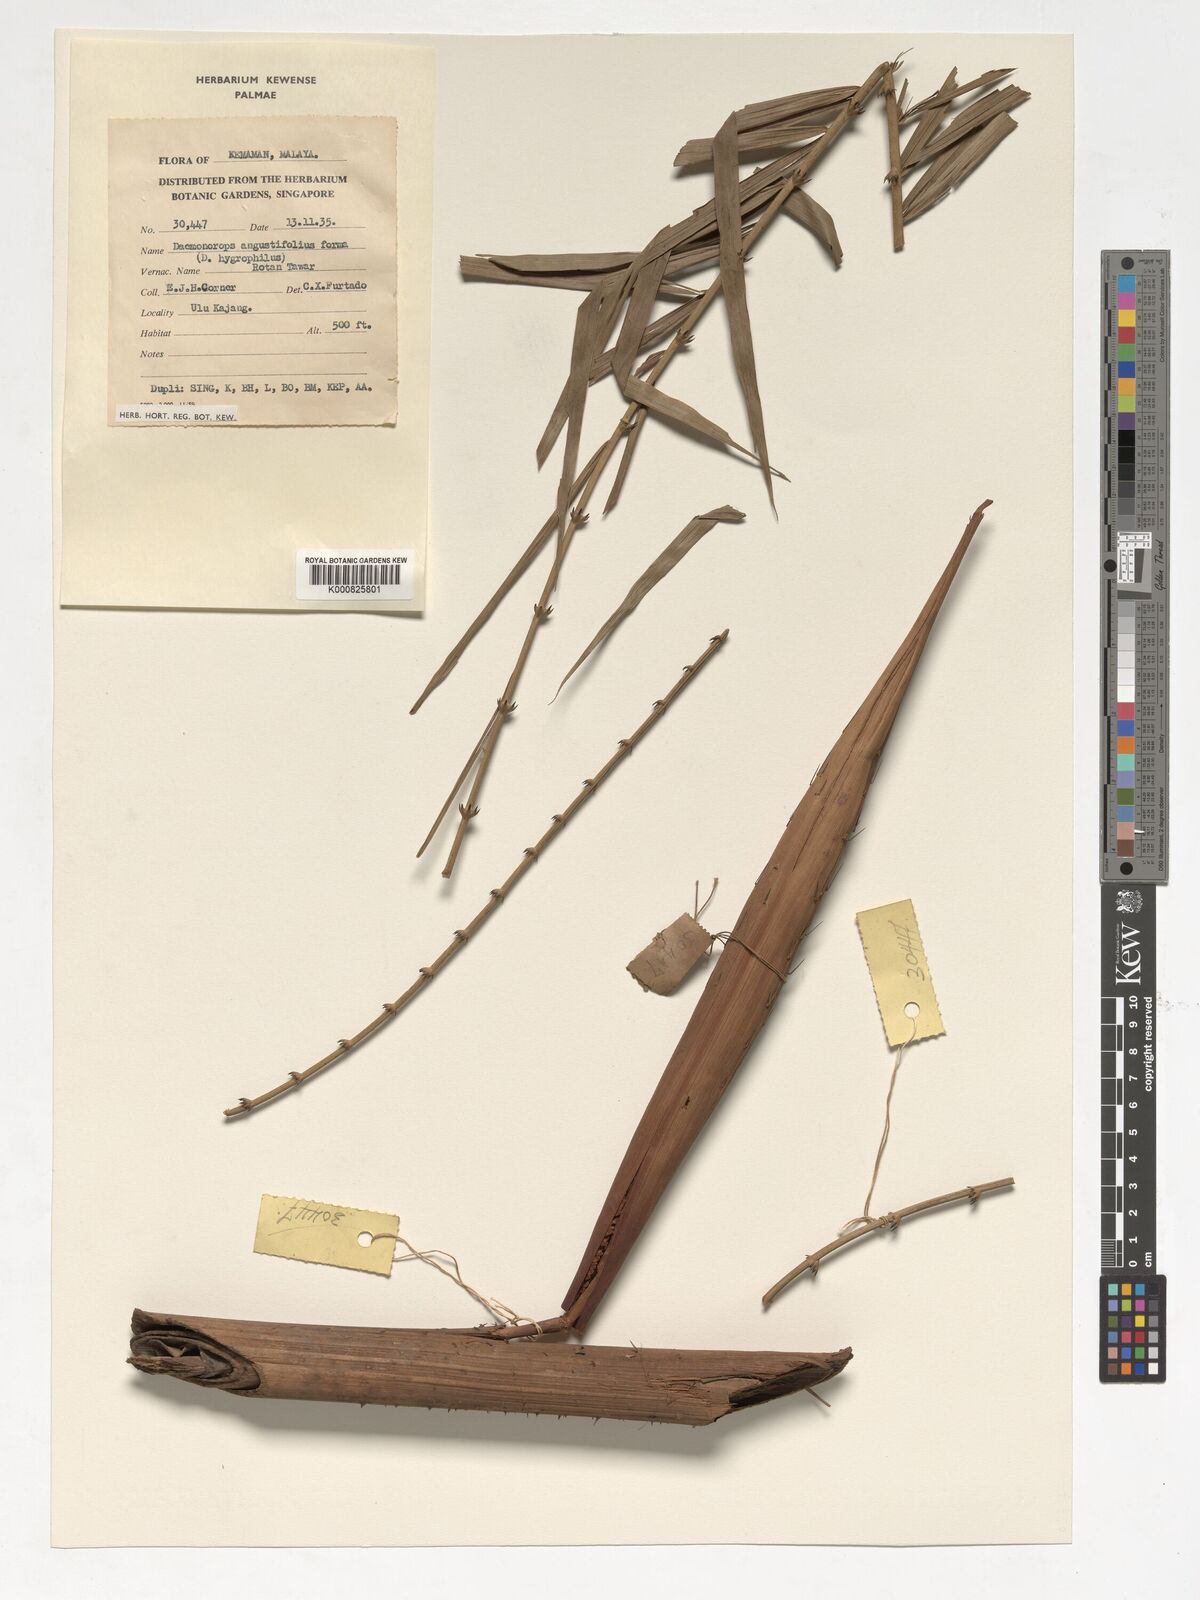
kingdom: Plantae
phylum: Tracheophyta
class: Liliopsida
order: Arecales
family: Arecaceae
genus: Calamus
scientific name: Calamus melanochaetes
